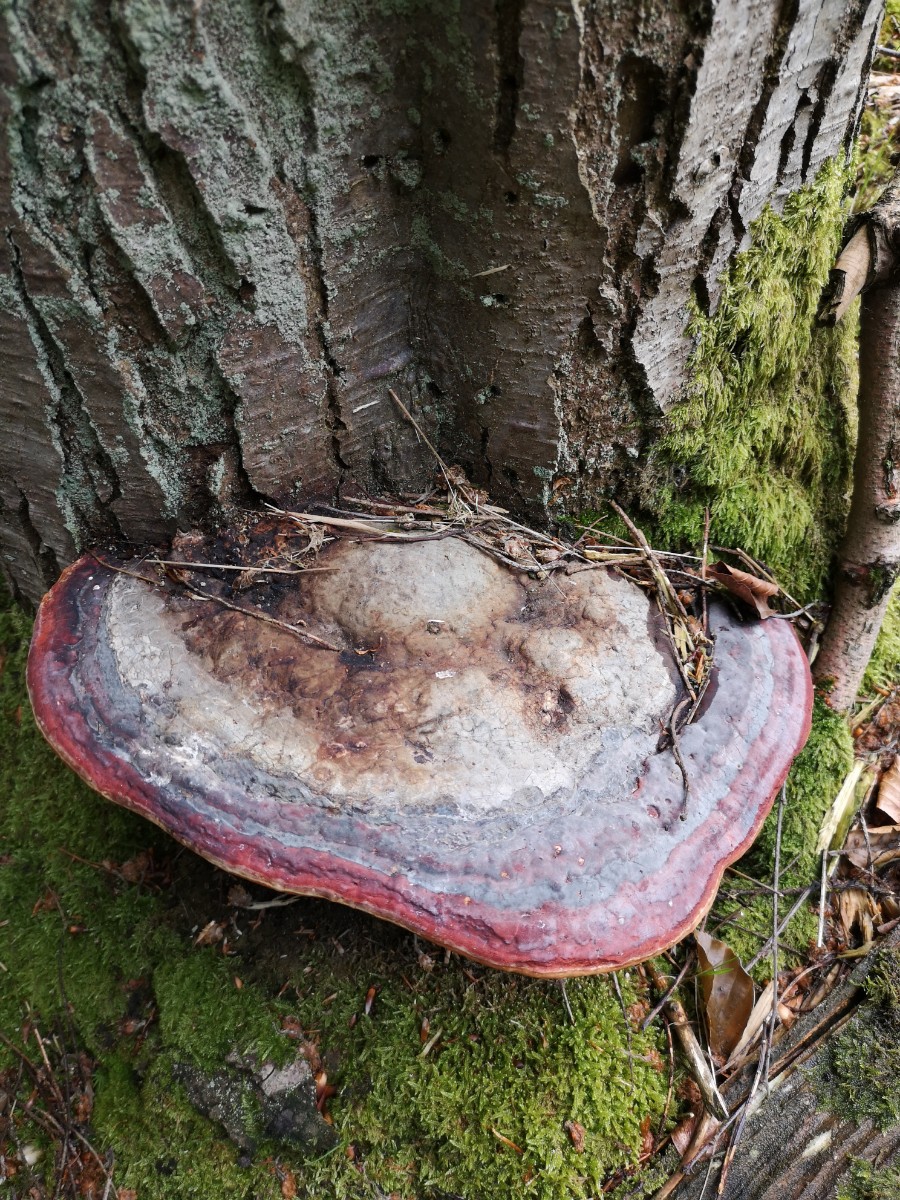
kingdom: Fungi
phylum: Basidiomycota
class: Agaricomycetes
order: Polyporales
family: Fomitopsidaceae
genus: Fomitopsis
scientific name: Fomitopsis pinicola
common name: randbæltet hovporesvamp
